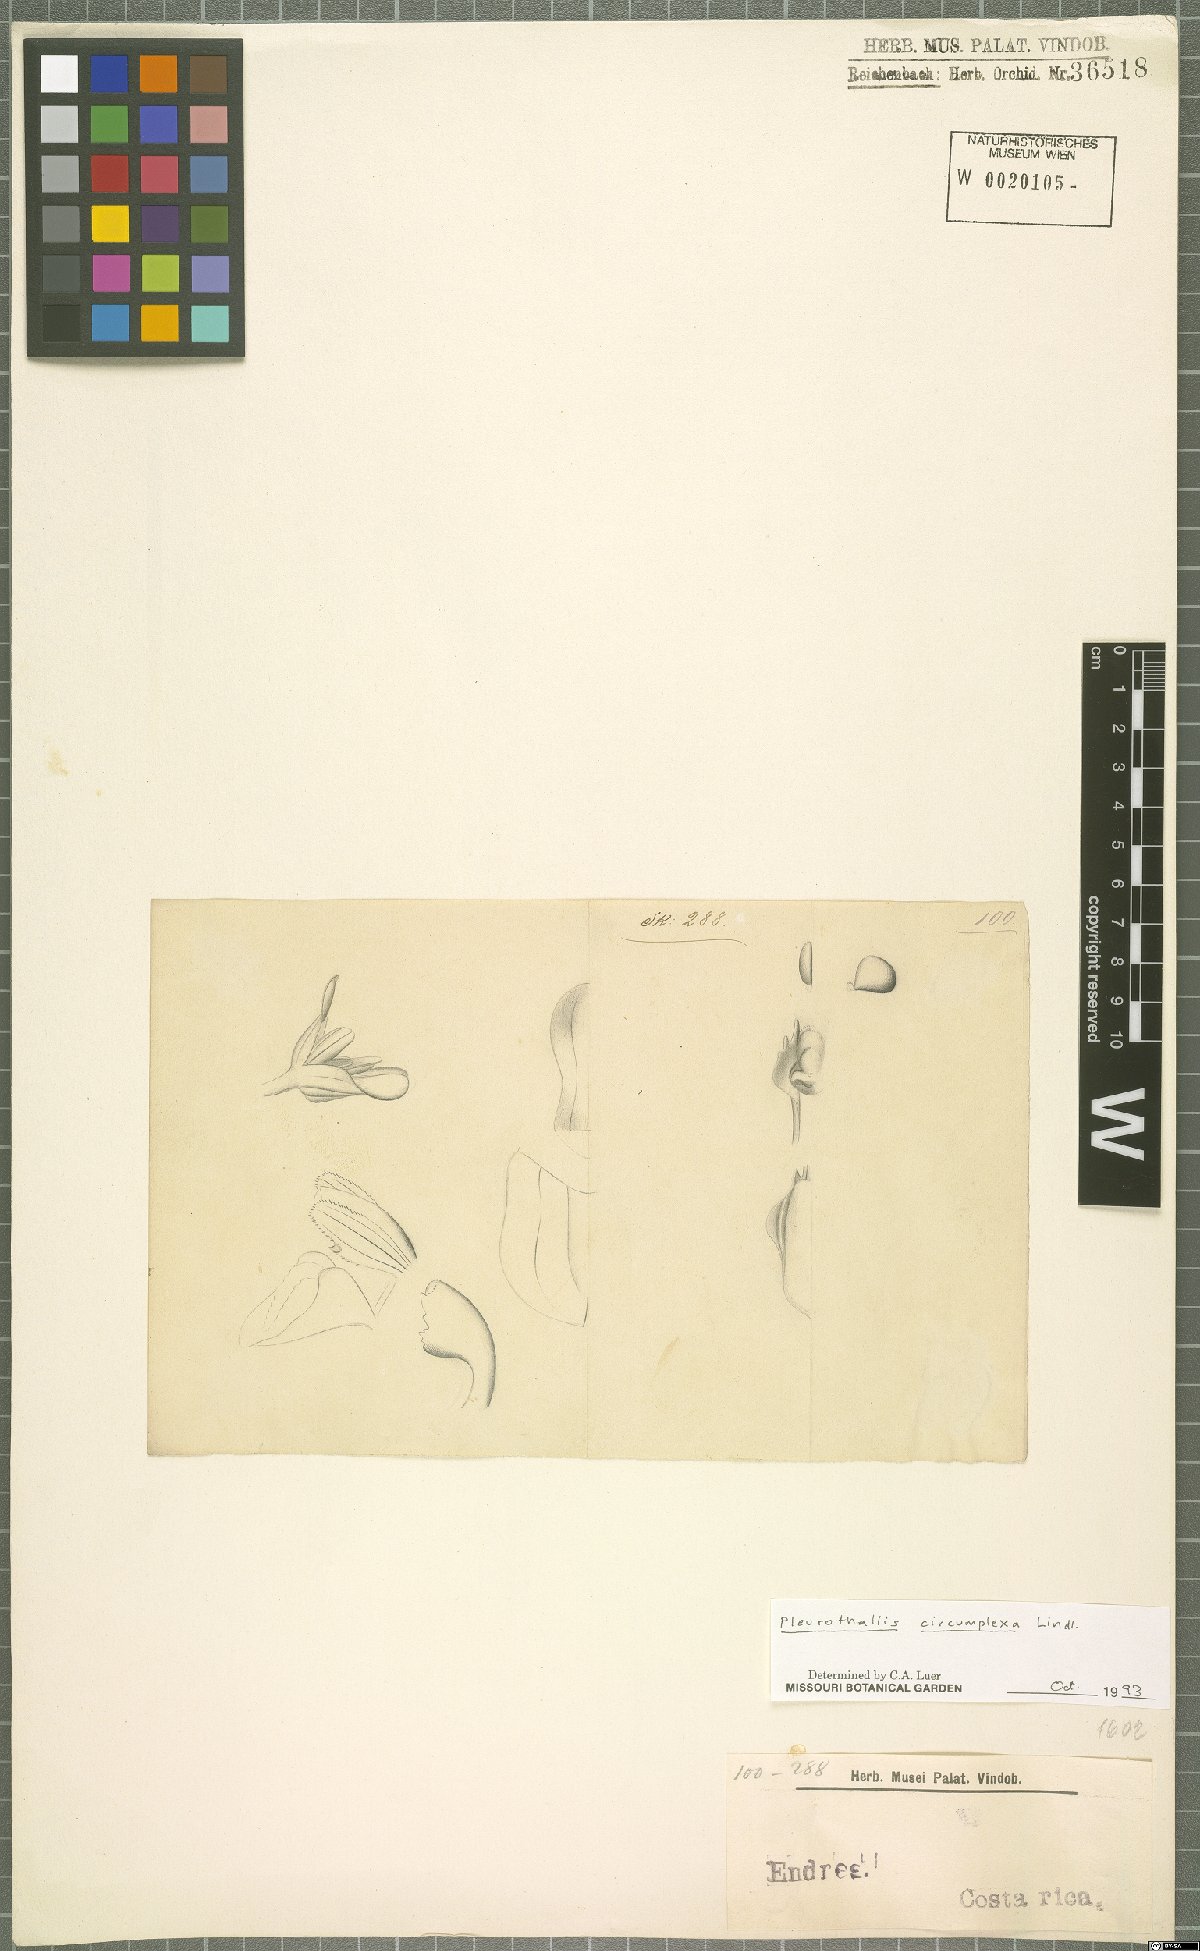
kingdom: Plantae
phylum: Tracheophyta
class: Liliopsida
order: Asparagales
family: Orchidaceae
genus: Acianthera
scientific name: Acianthera circumplexa
